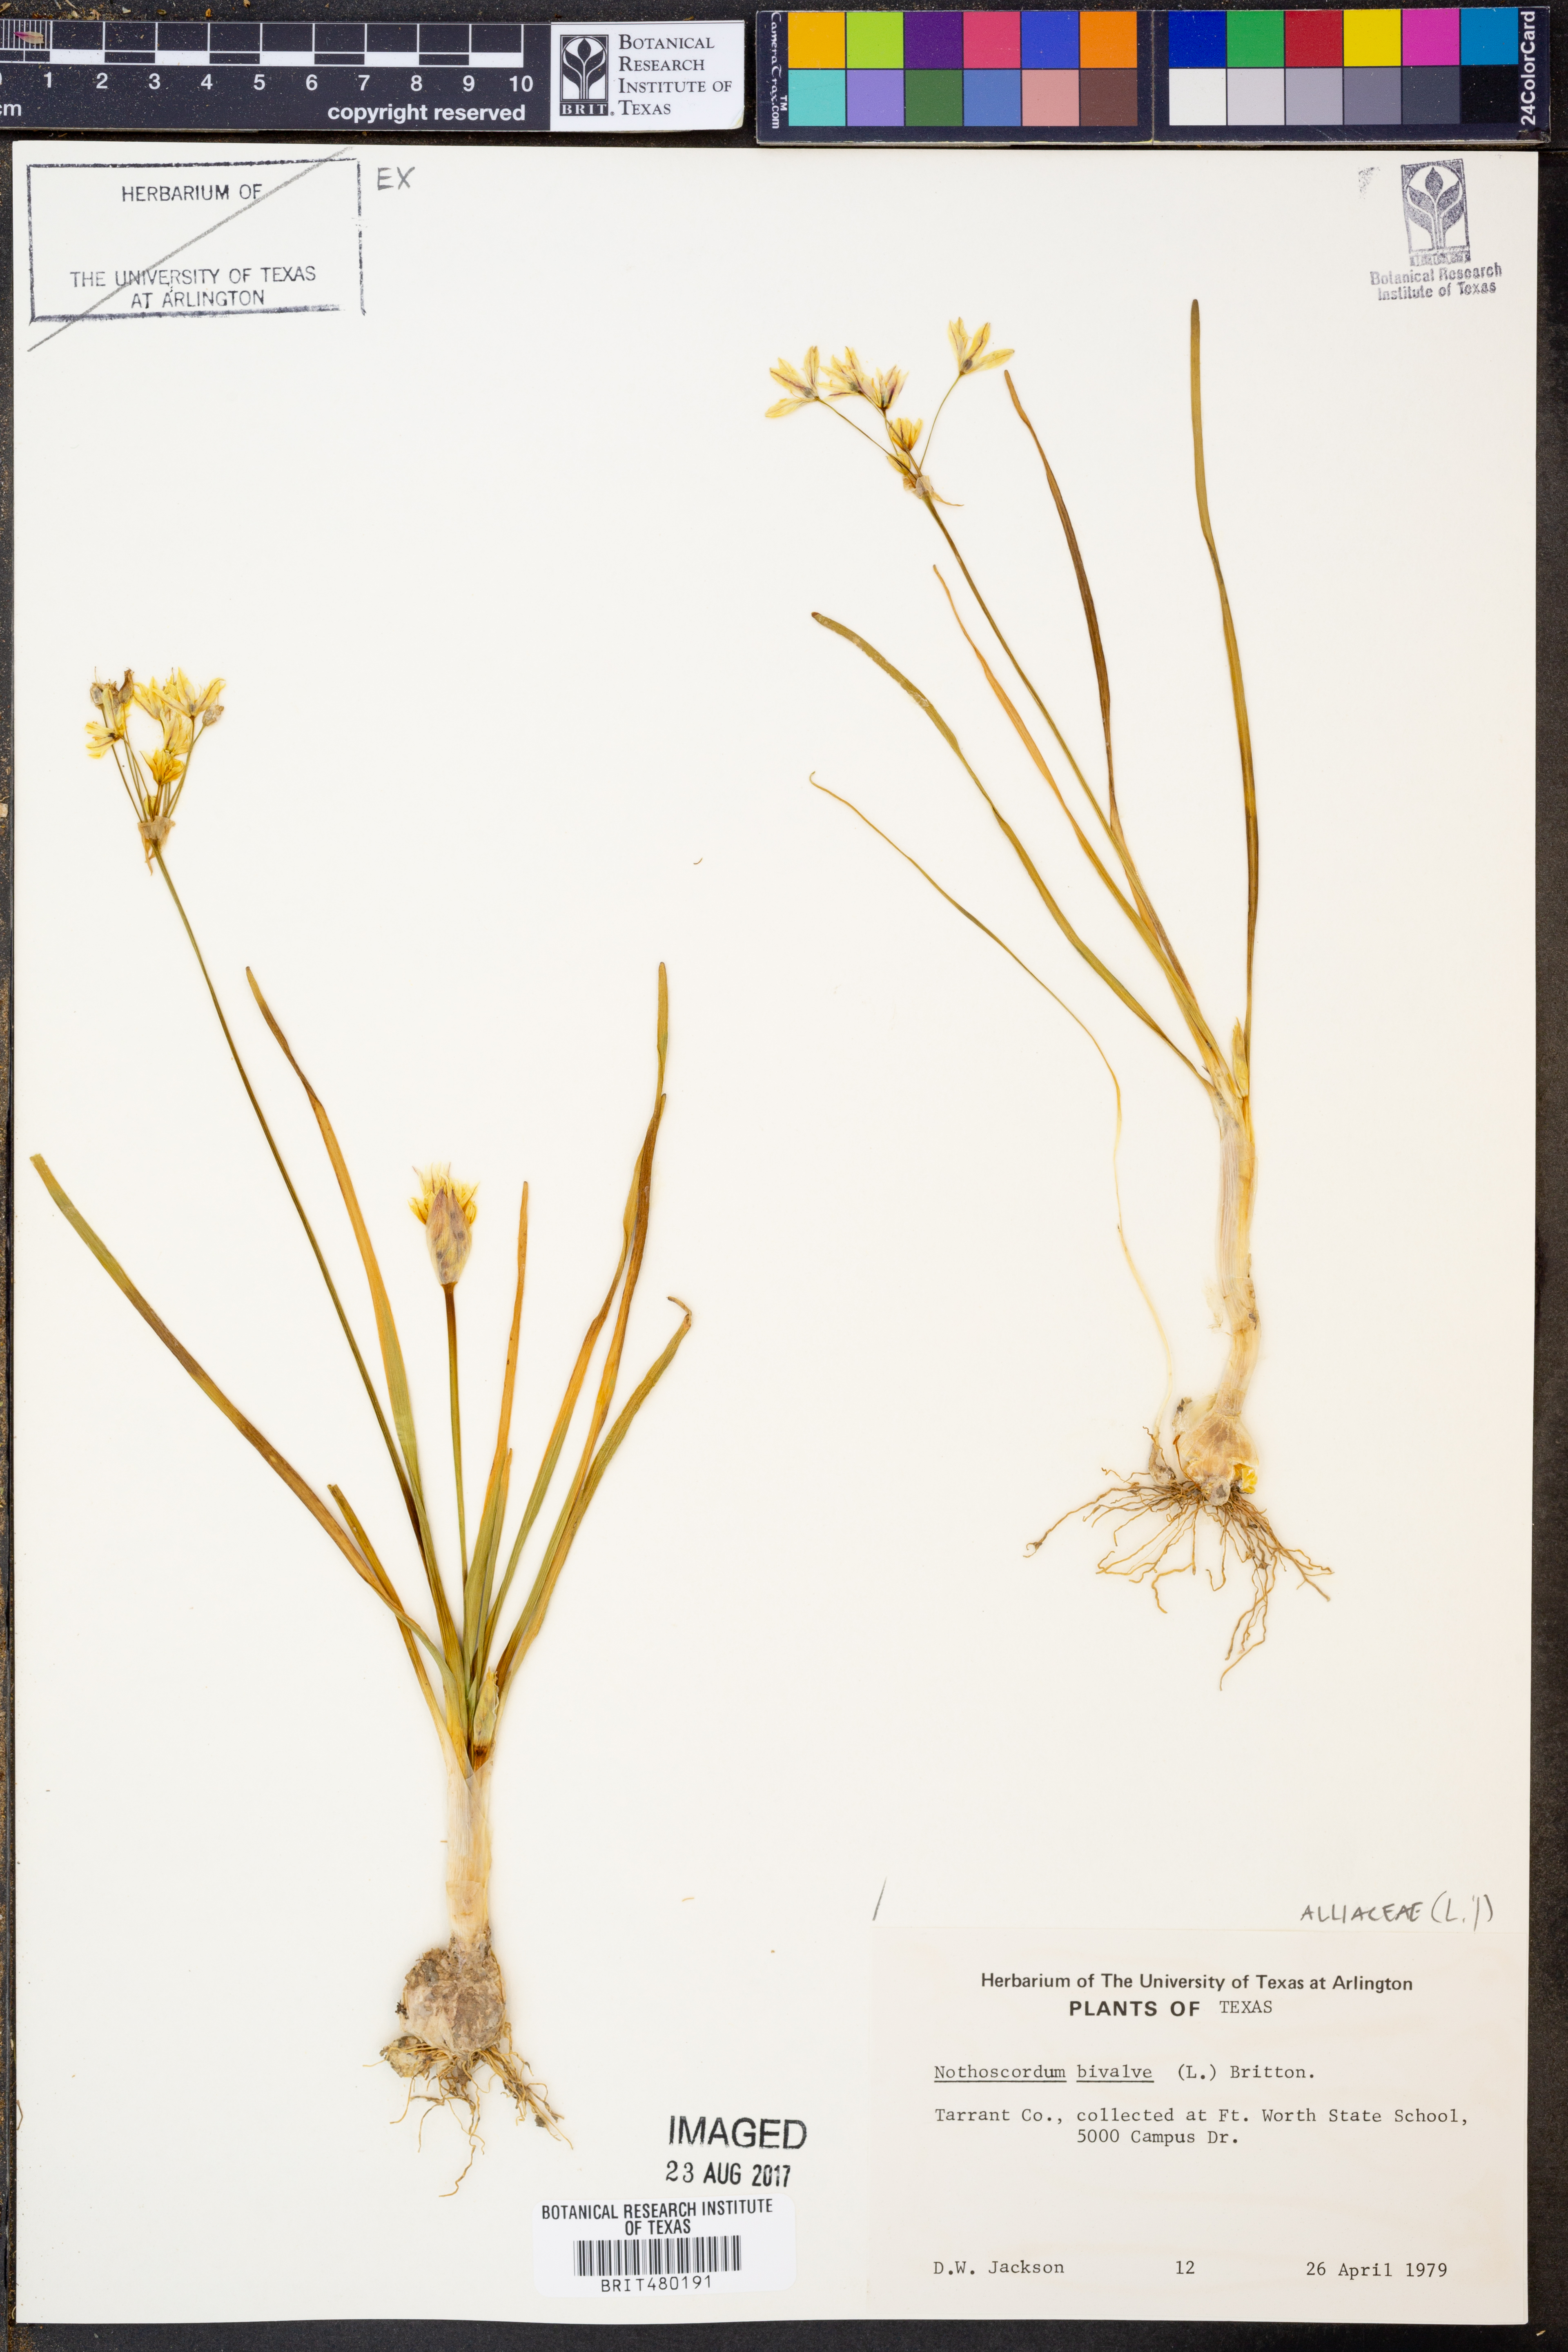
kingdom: Plantae
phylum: Tracheophyta
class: Liliopsida
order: Asparagales
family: Amaryllidaceae
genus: Nothoscordum
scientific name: Nothoscordum bivalve
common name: Crow-poison
